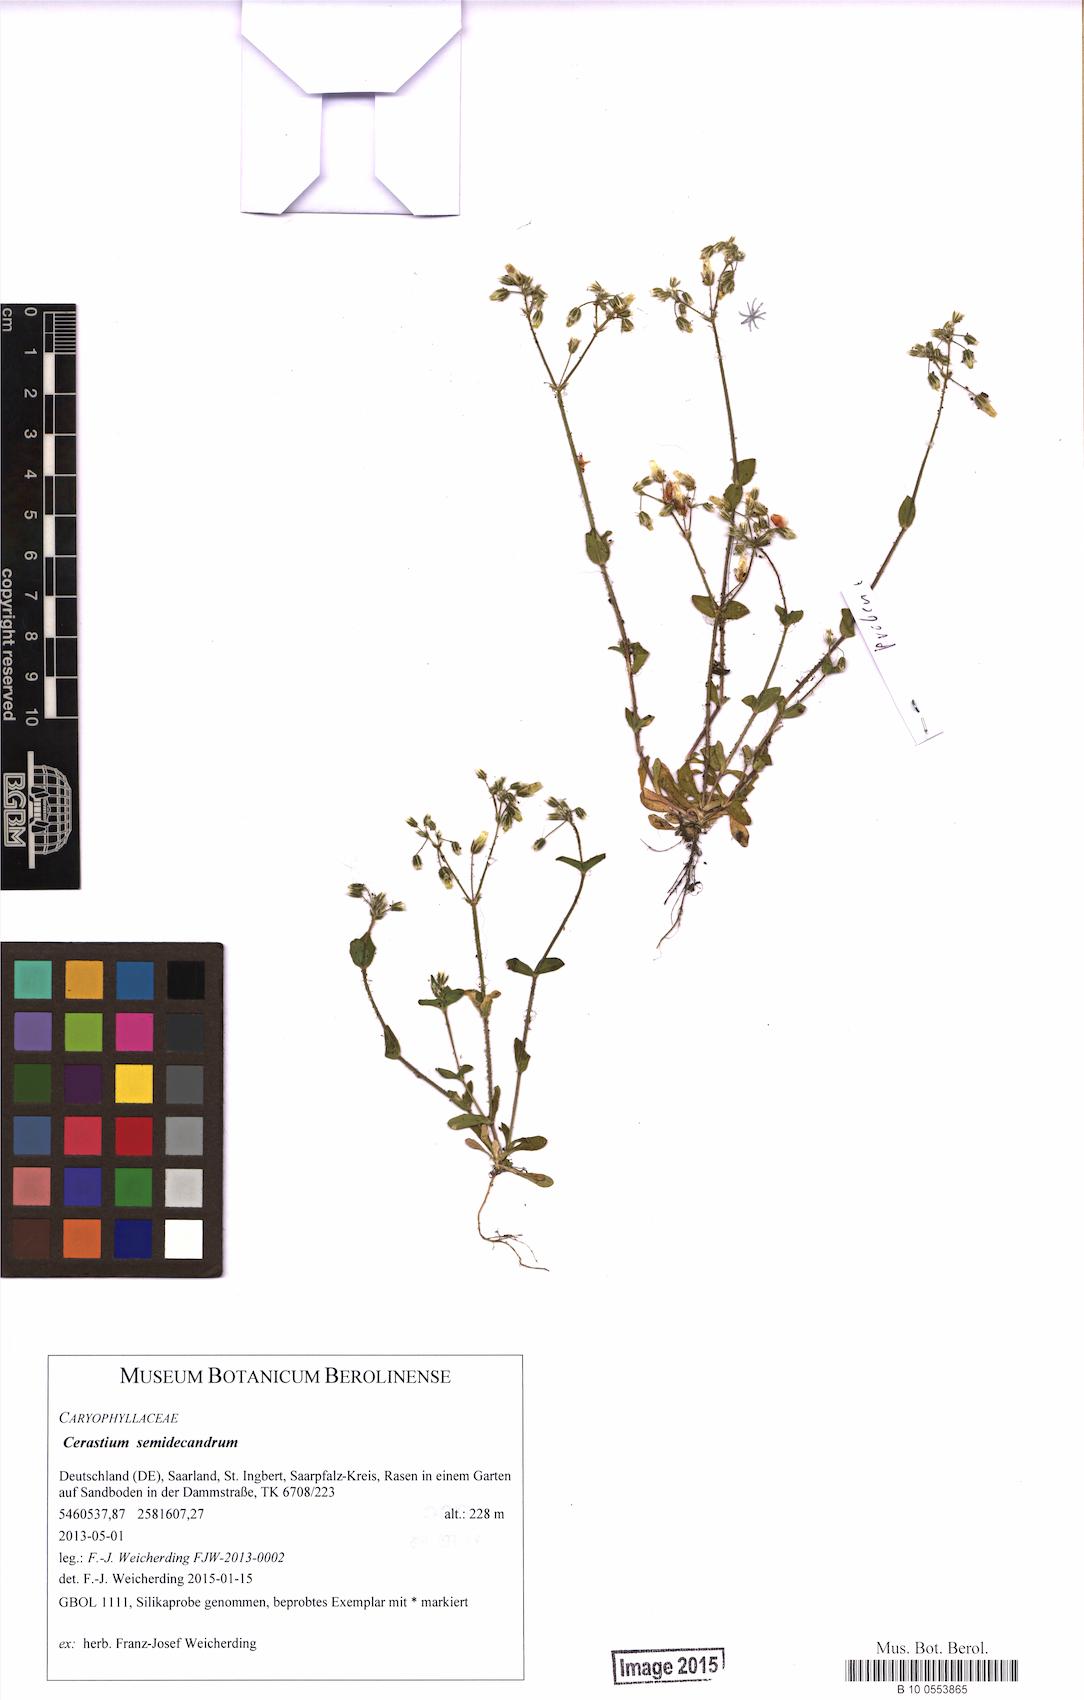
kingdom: Plantae
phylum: Tracheophyta
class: Magnoliopsida
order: Caryophyllales
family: Caryophyllaceae
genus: Cerastium
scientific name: Cerastium semidecandrum
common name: Little mouse-ear
